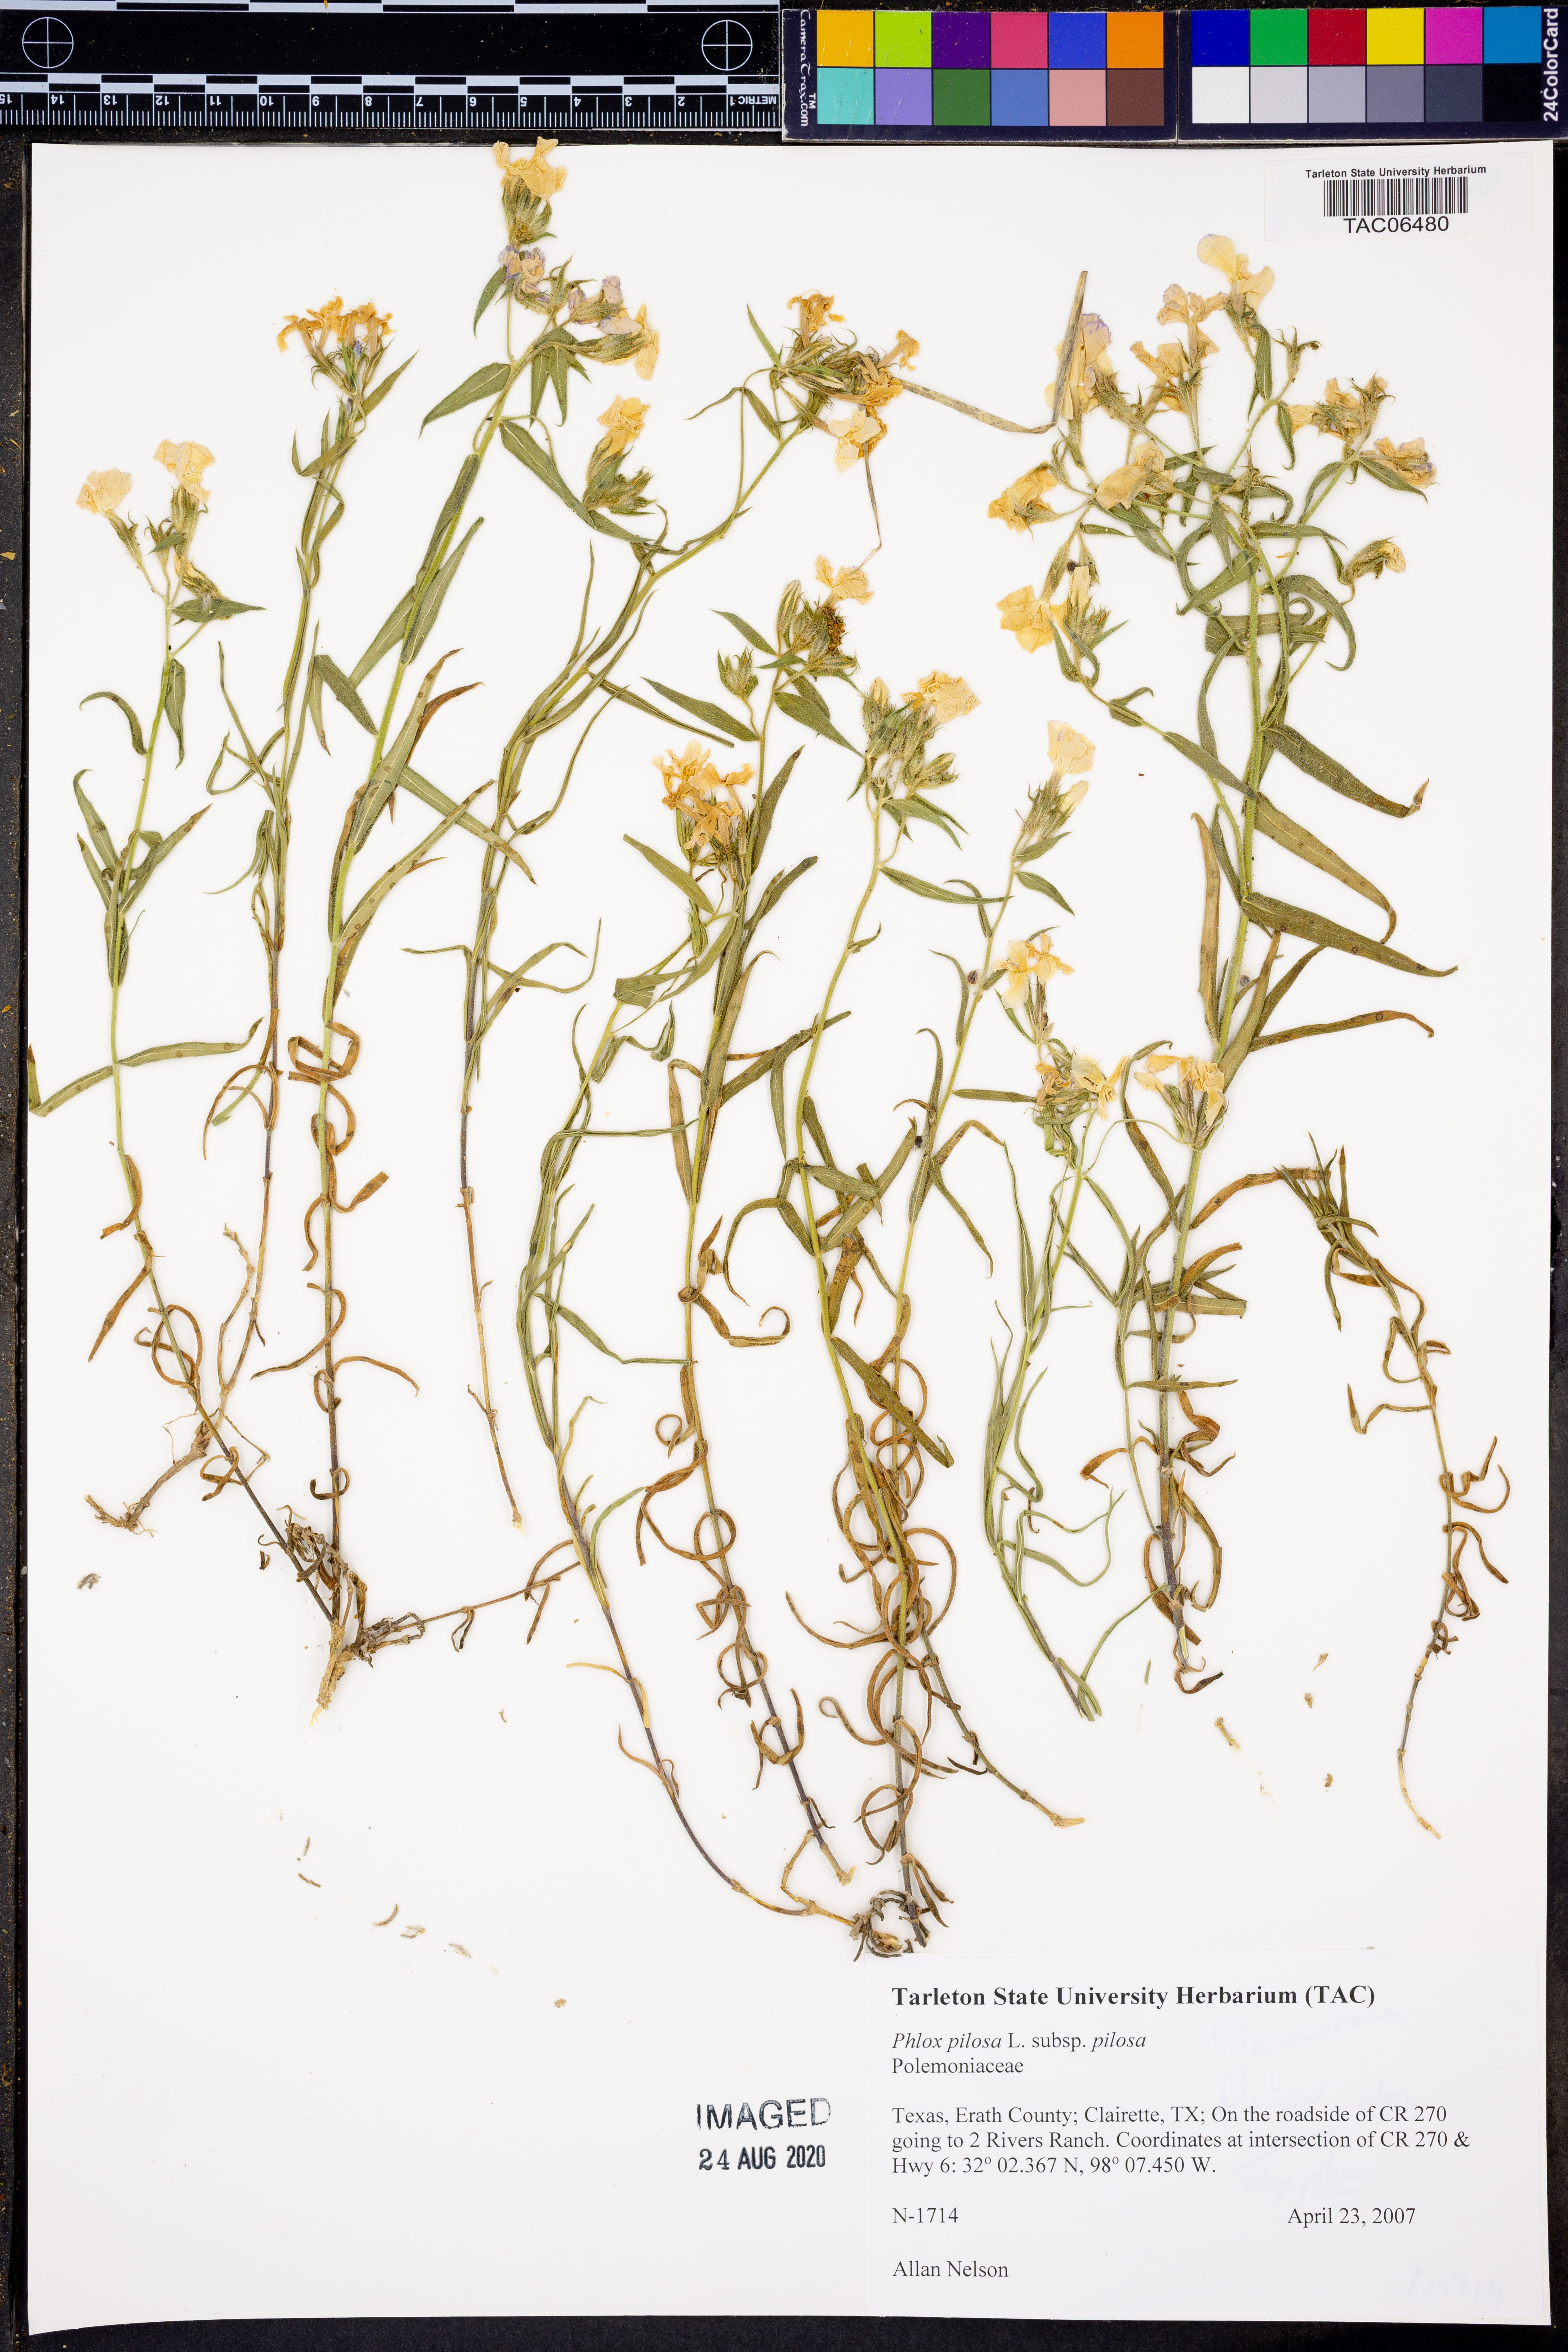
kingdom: Plantae
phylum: Tracheophyta
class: Magnoliopsida
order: Ericales
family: Polemoniaceae
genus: Phlox
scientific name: Phlox pilosa
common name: Prairie phlox
